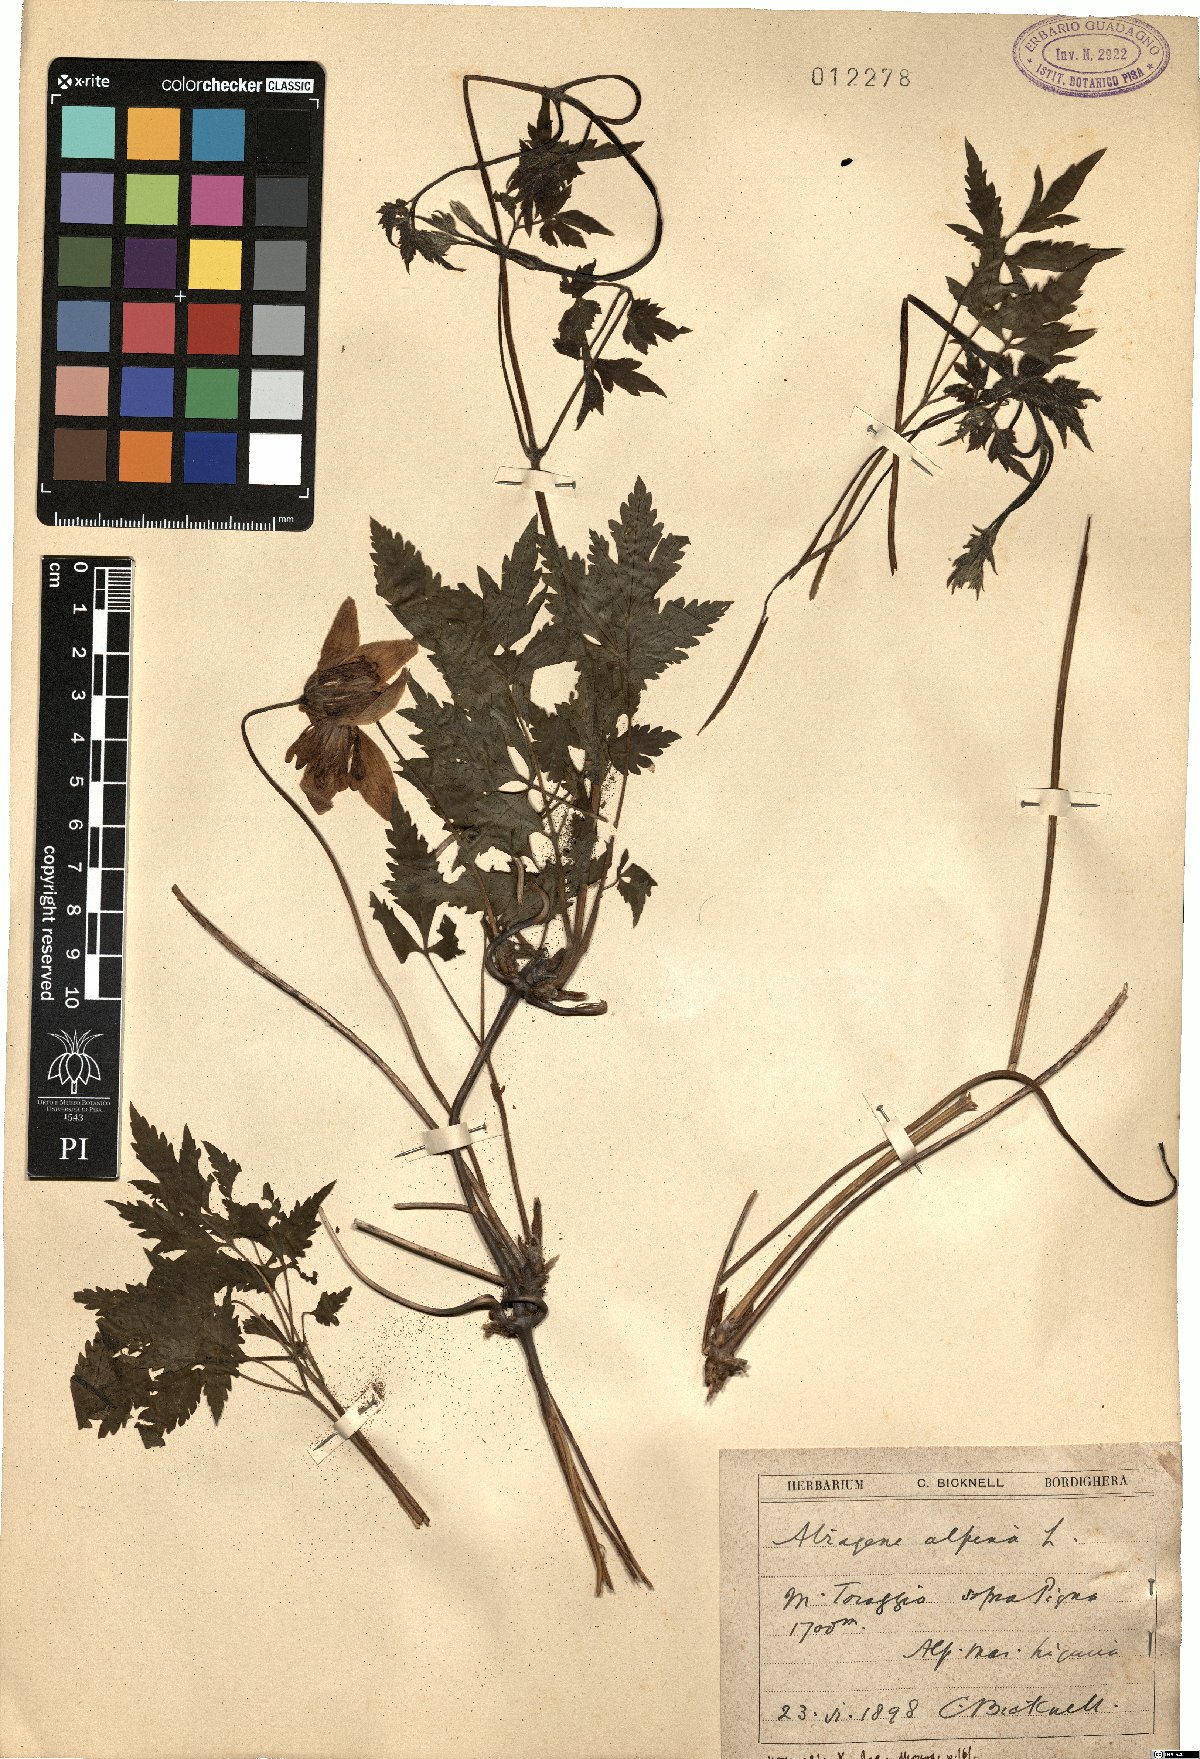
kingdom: Plantae
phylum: Tracheophyta
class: Magnoliopsida
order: Ranunculales
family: Ranunculaceae
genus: Clematis
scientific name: Clematis alpina
